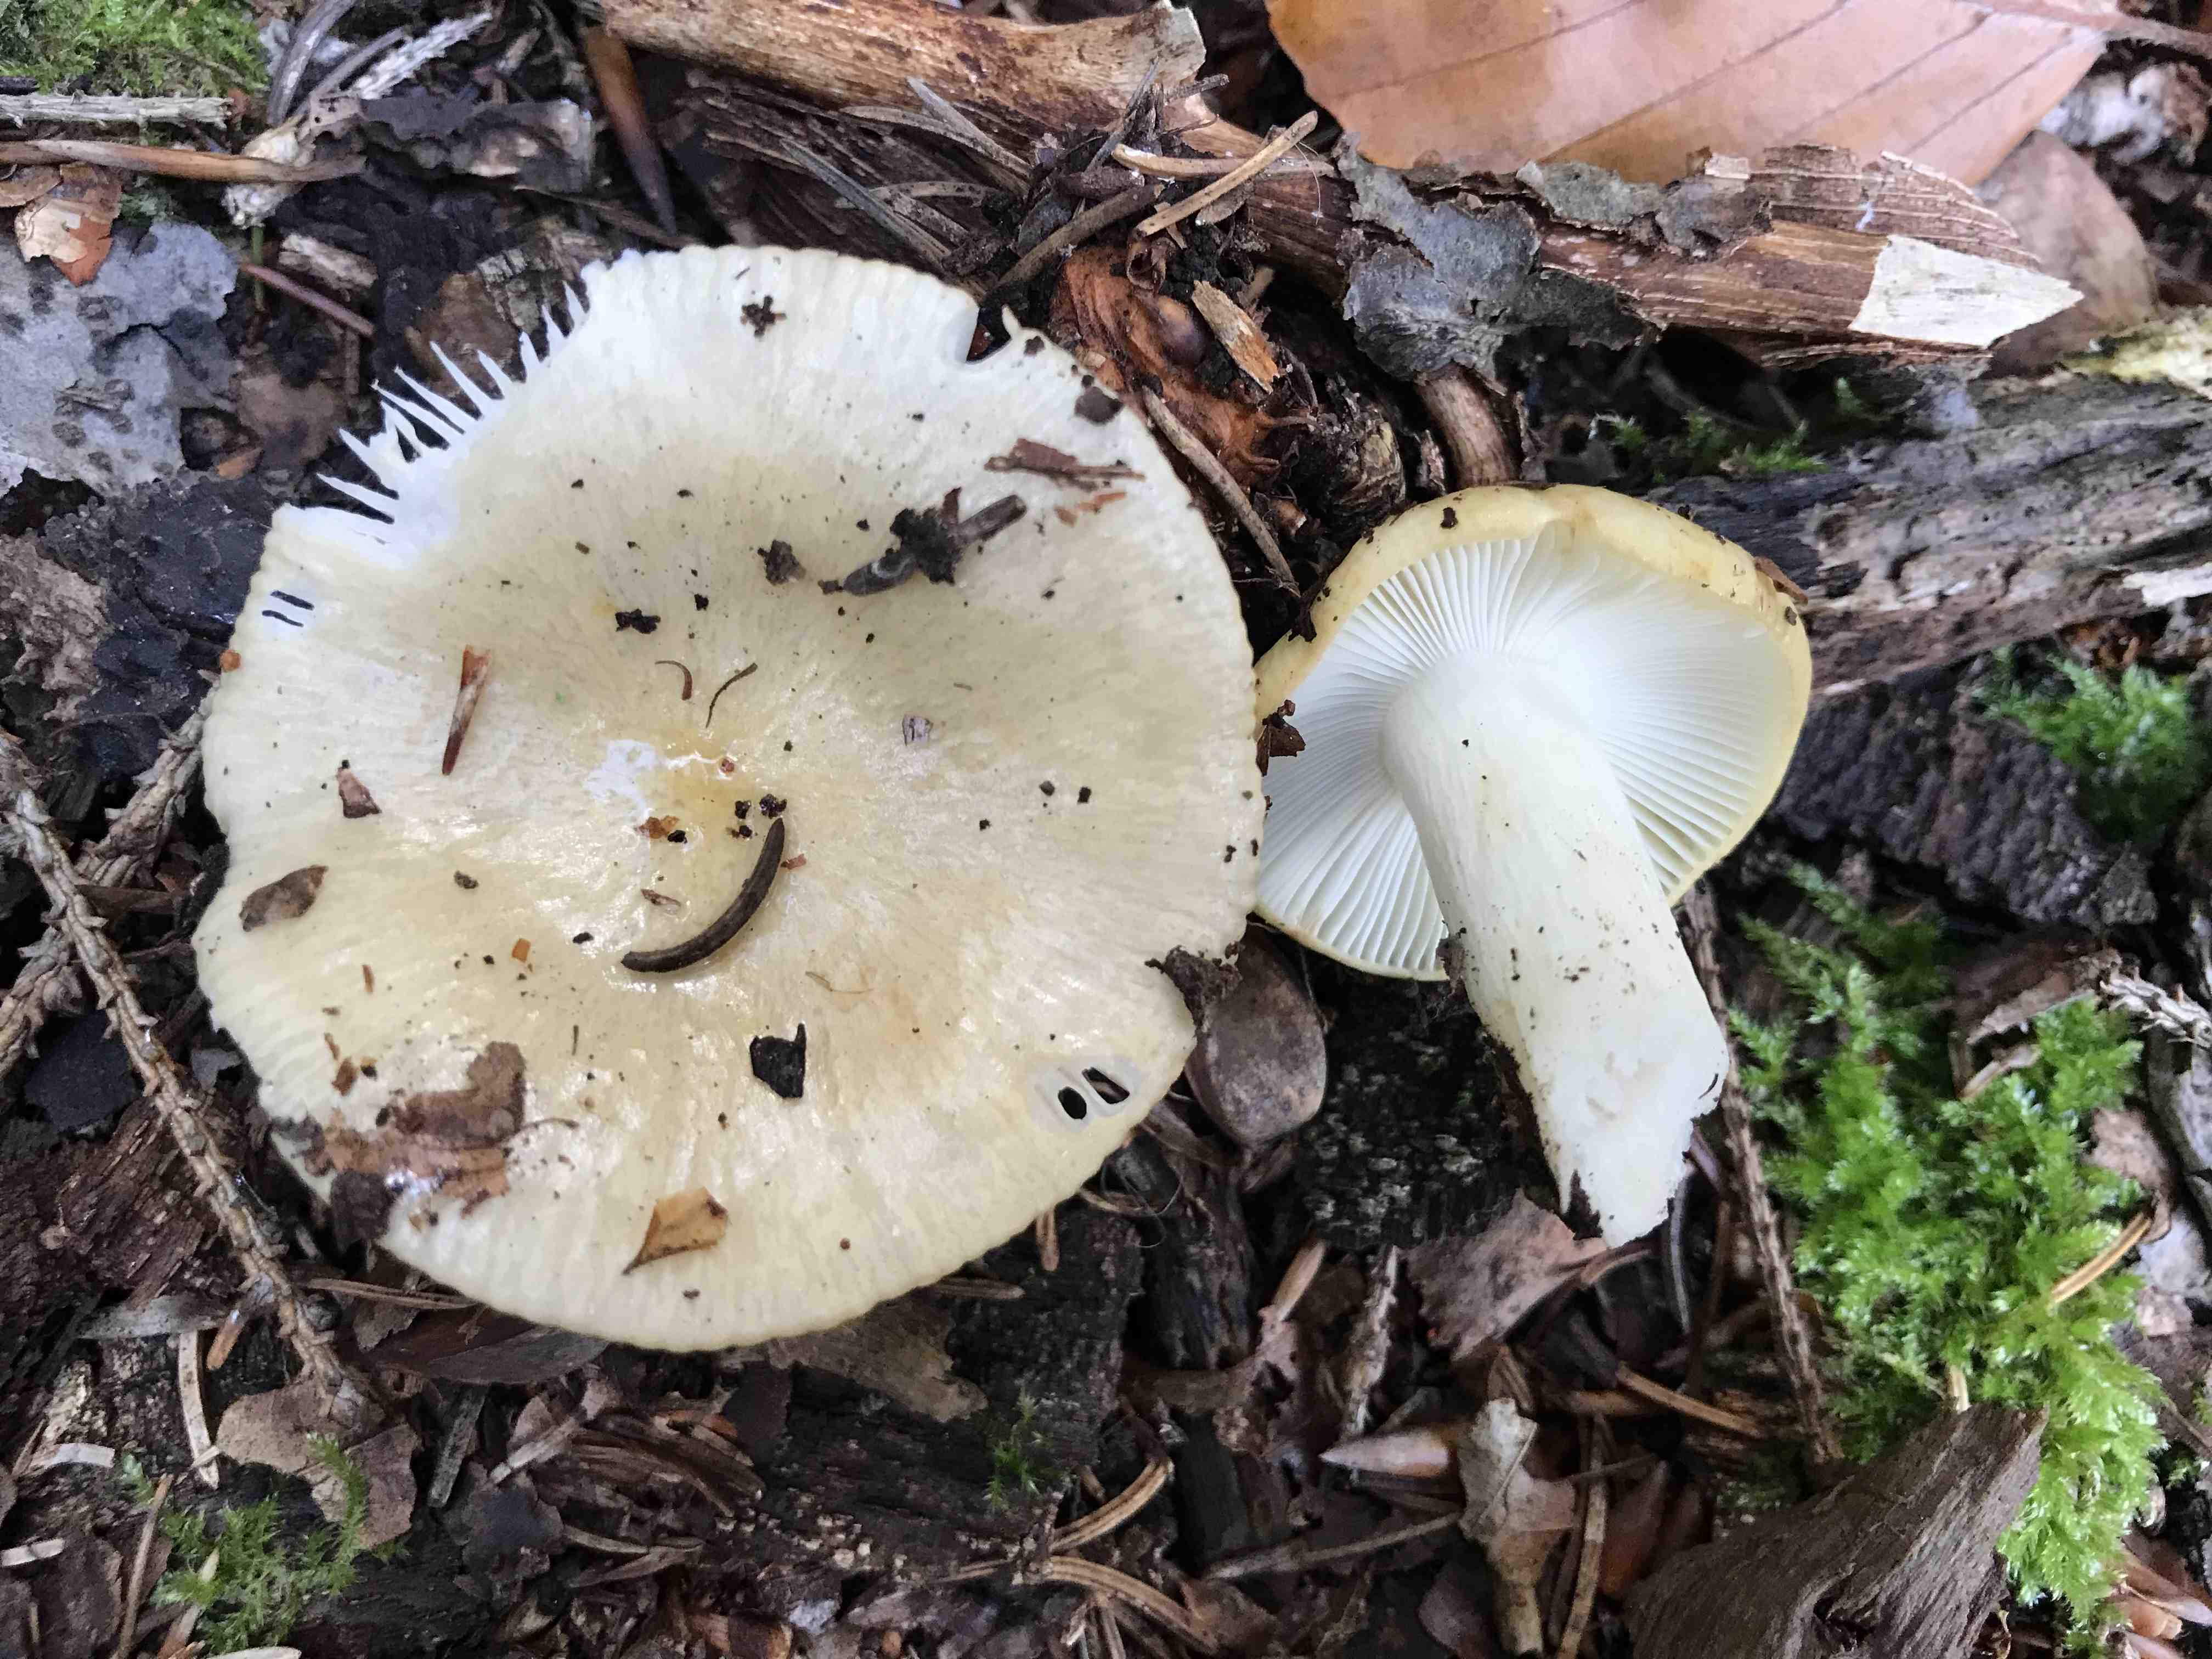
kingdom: Fungi
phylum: Basidiomycota
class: Agaricomycetes
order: Russulales
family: Russulaceae
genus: Russula
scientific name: Russula ochroleuca
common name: okkergul skørhat
